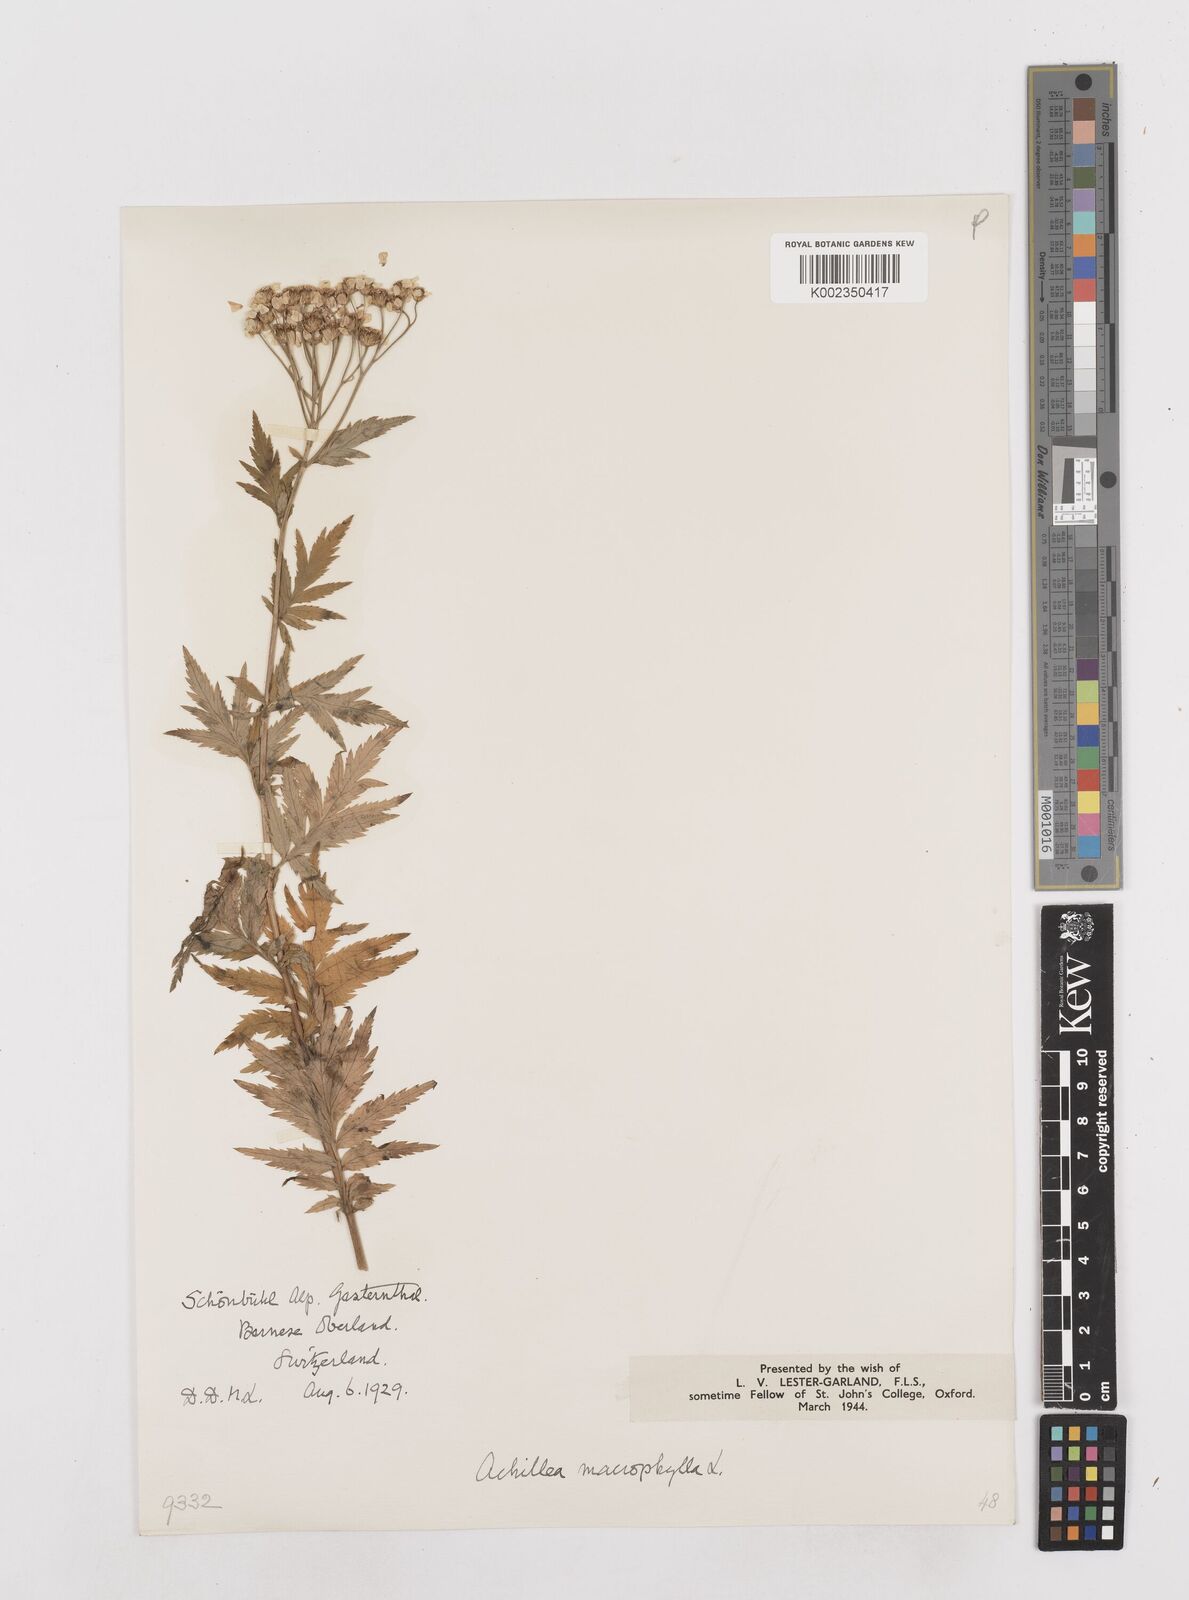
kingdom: Plantae
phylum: Tracheophyta
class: Magnoliopsida
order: Asterales
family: Asteraceae
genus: Achillea
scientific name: Achillea macrophylla
